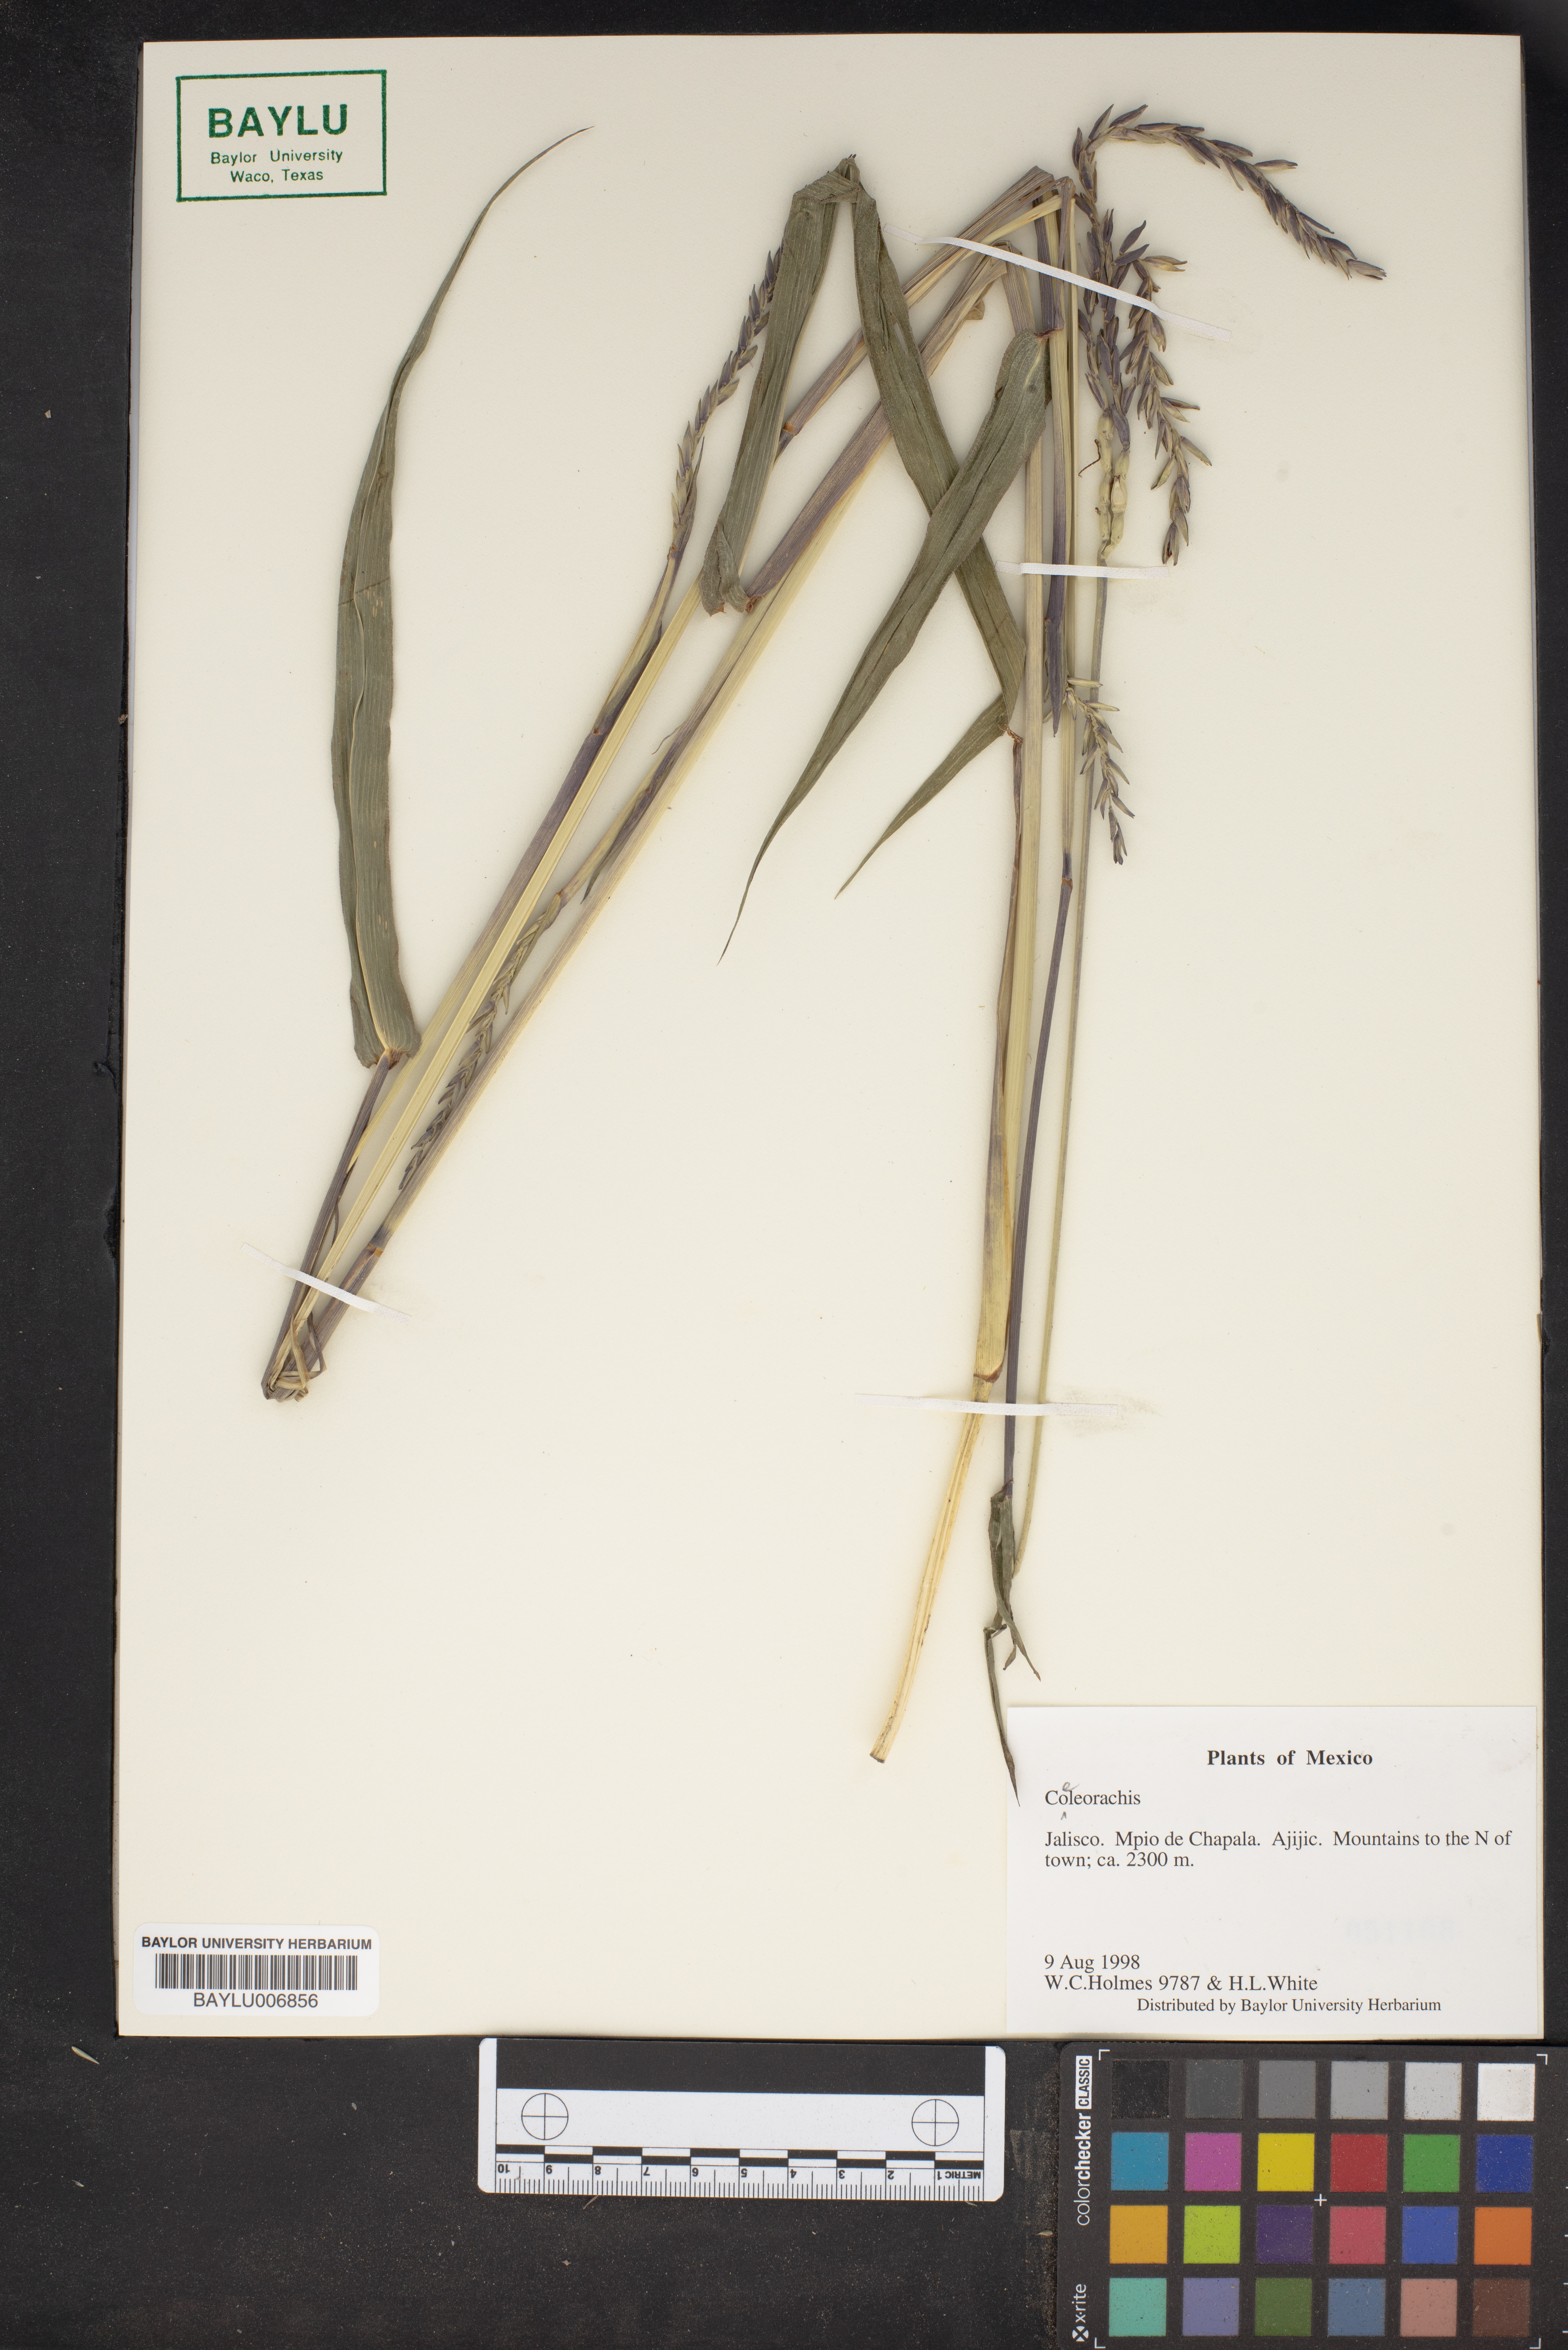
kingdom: Plantae
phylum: Tracheophyta
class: Liliopsida
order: Poales
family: Poaceae
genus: Rottboellia
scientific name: Rottboellia
